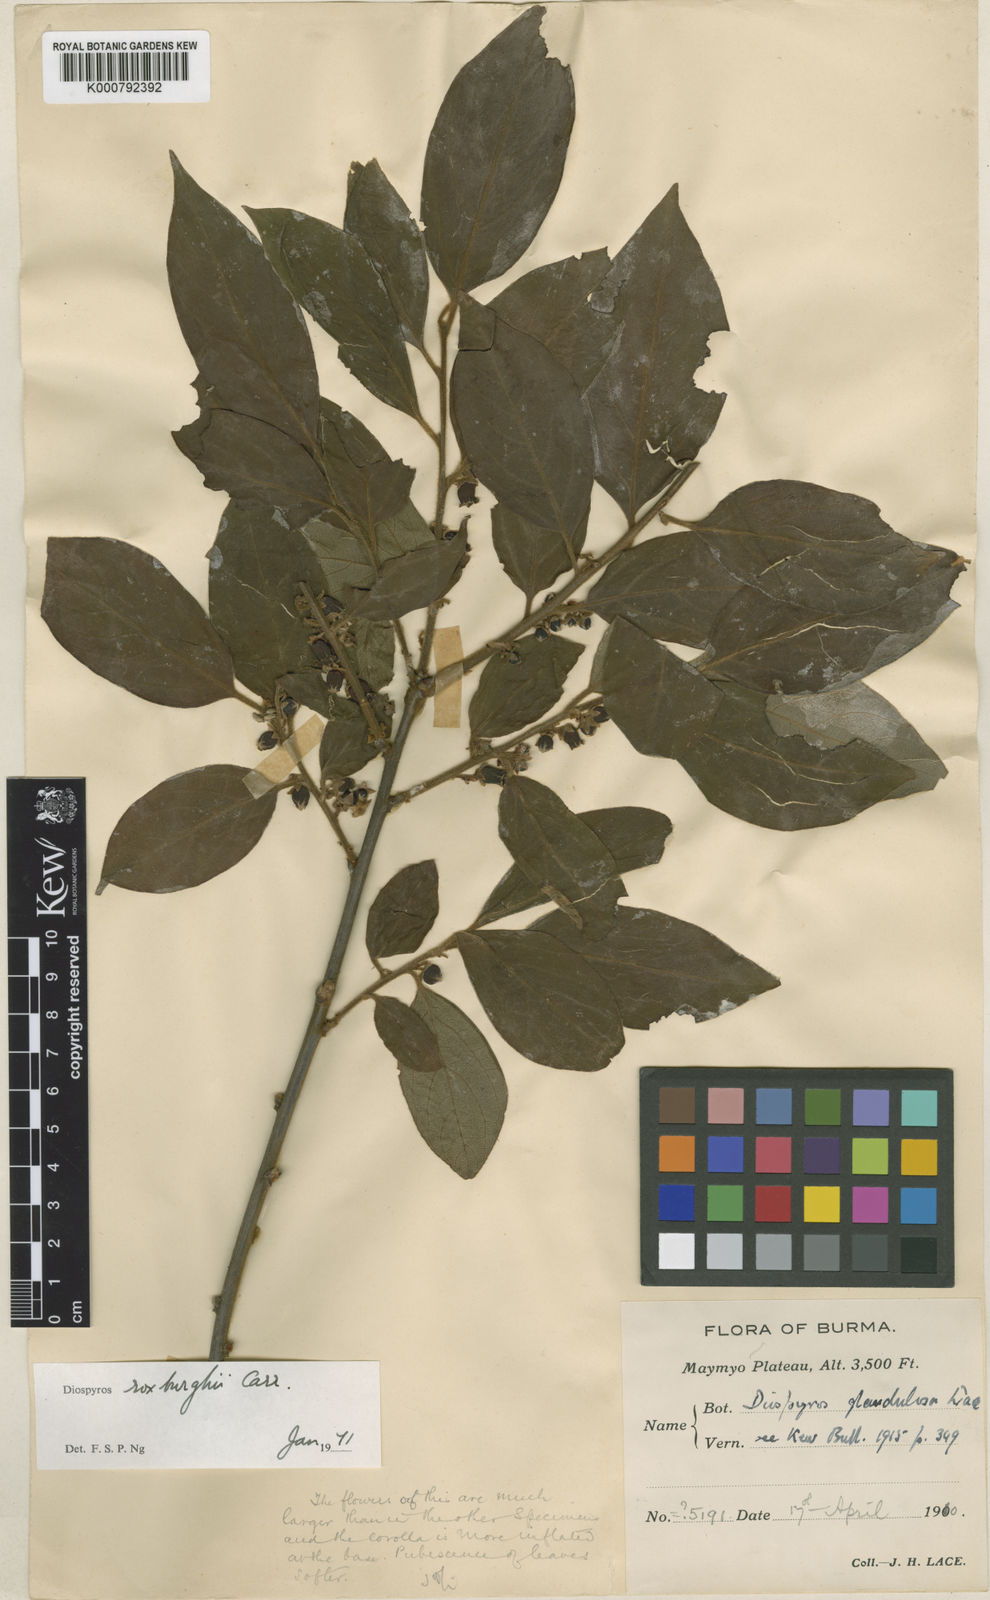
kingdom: Plantae
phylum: Tracheophyta
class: Magnoliopsida
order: Ericales
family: Ebenaceae
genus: Diospyros
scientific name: Diospyros glandulosa
